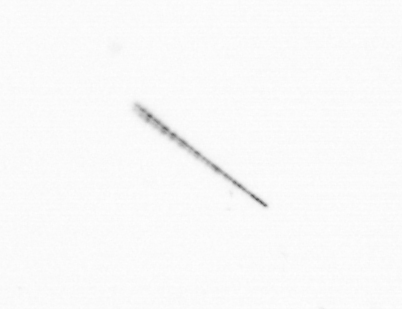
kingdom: Chromista
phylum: Ochrophyta
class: Bacillariophyceae
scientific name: Bacillariophyceae
